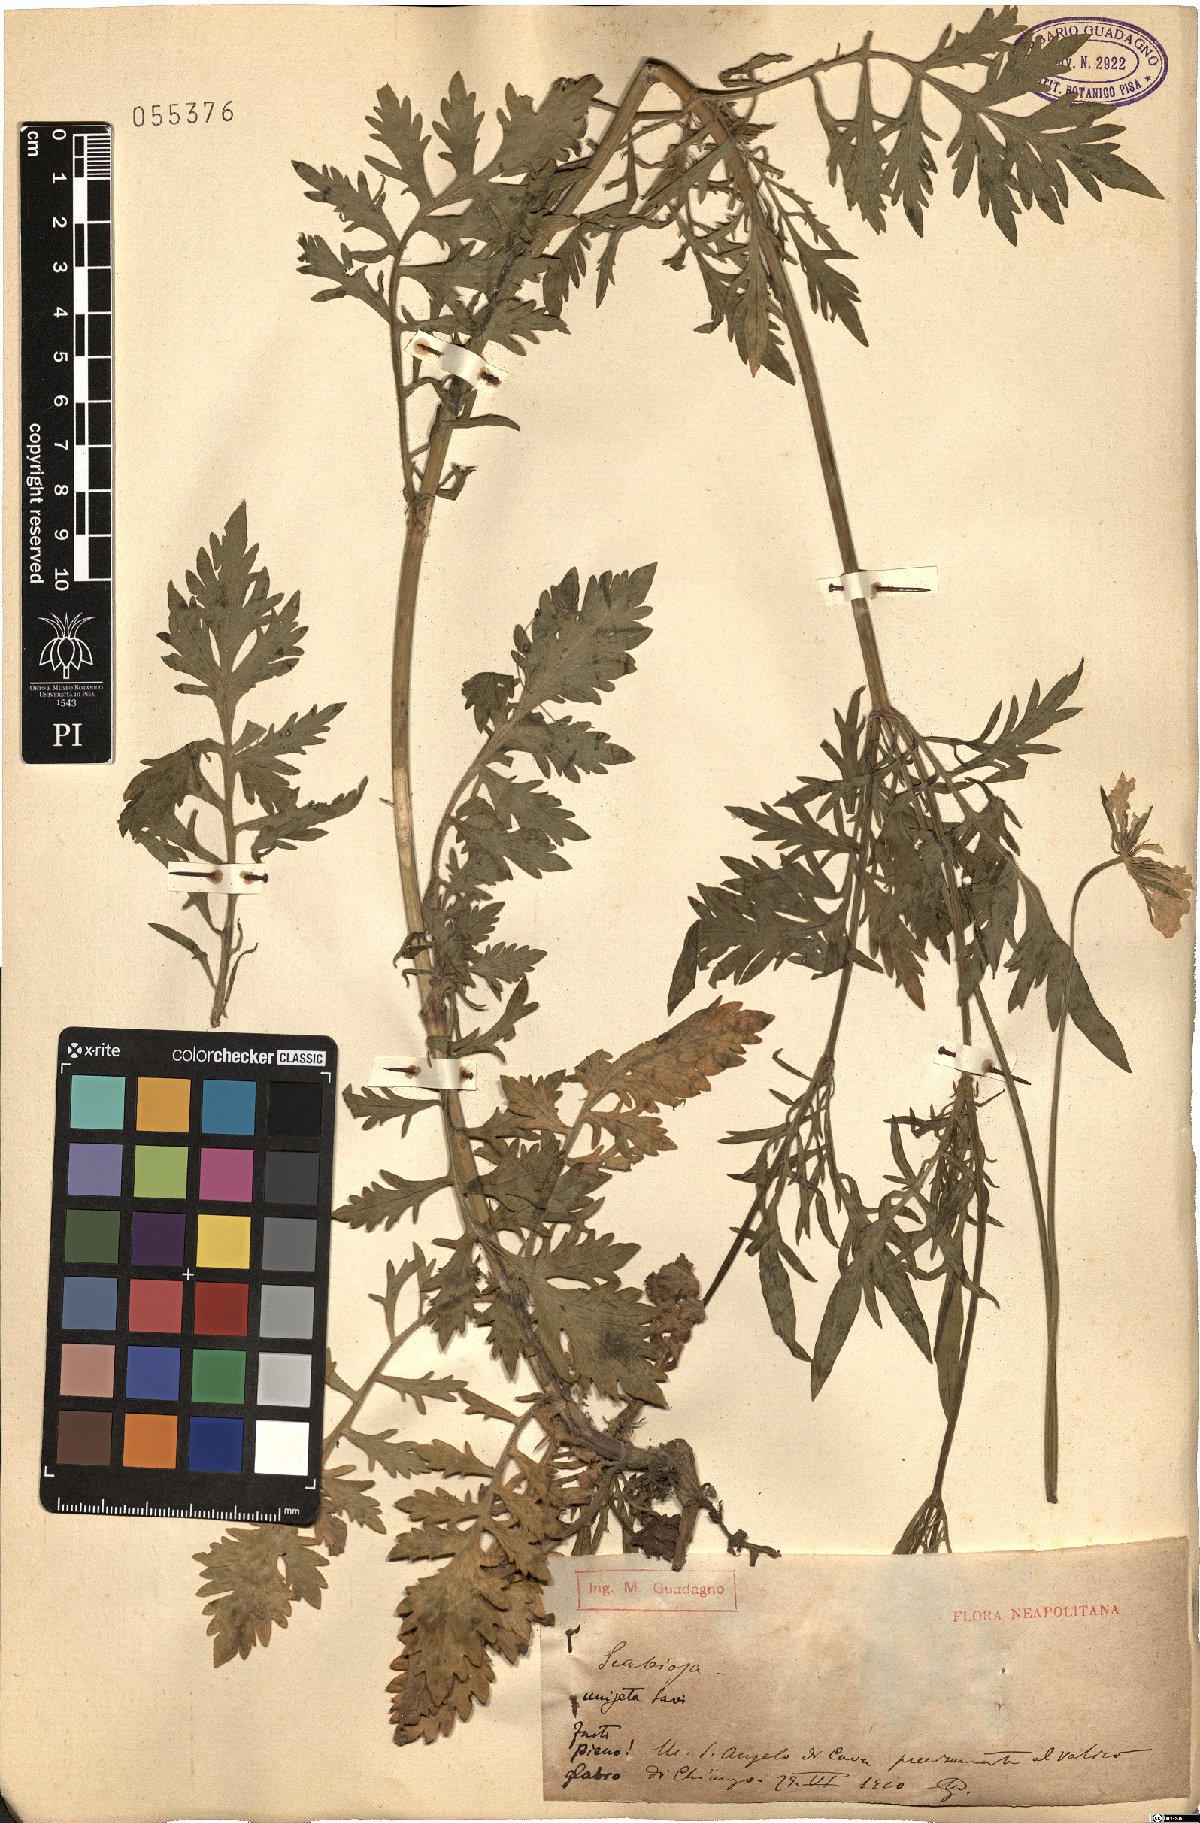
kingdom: Plantae
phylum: Tracheophyta
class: Magnoliopsida
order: Dipsacales
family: Caprifoliaceae
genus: Scabiosa
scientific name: Scabiosa columbaria
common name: Small scabious
